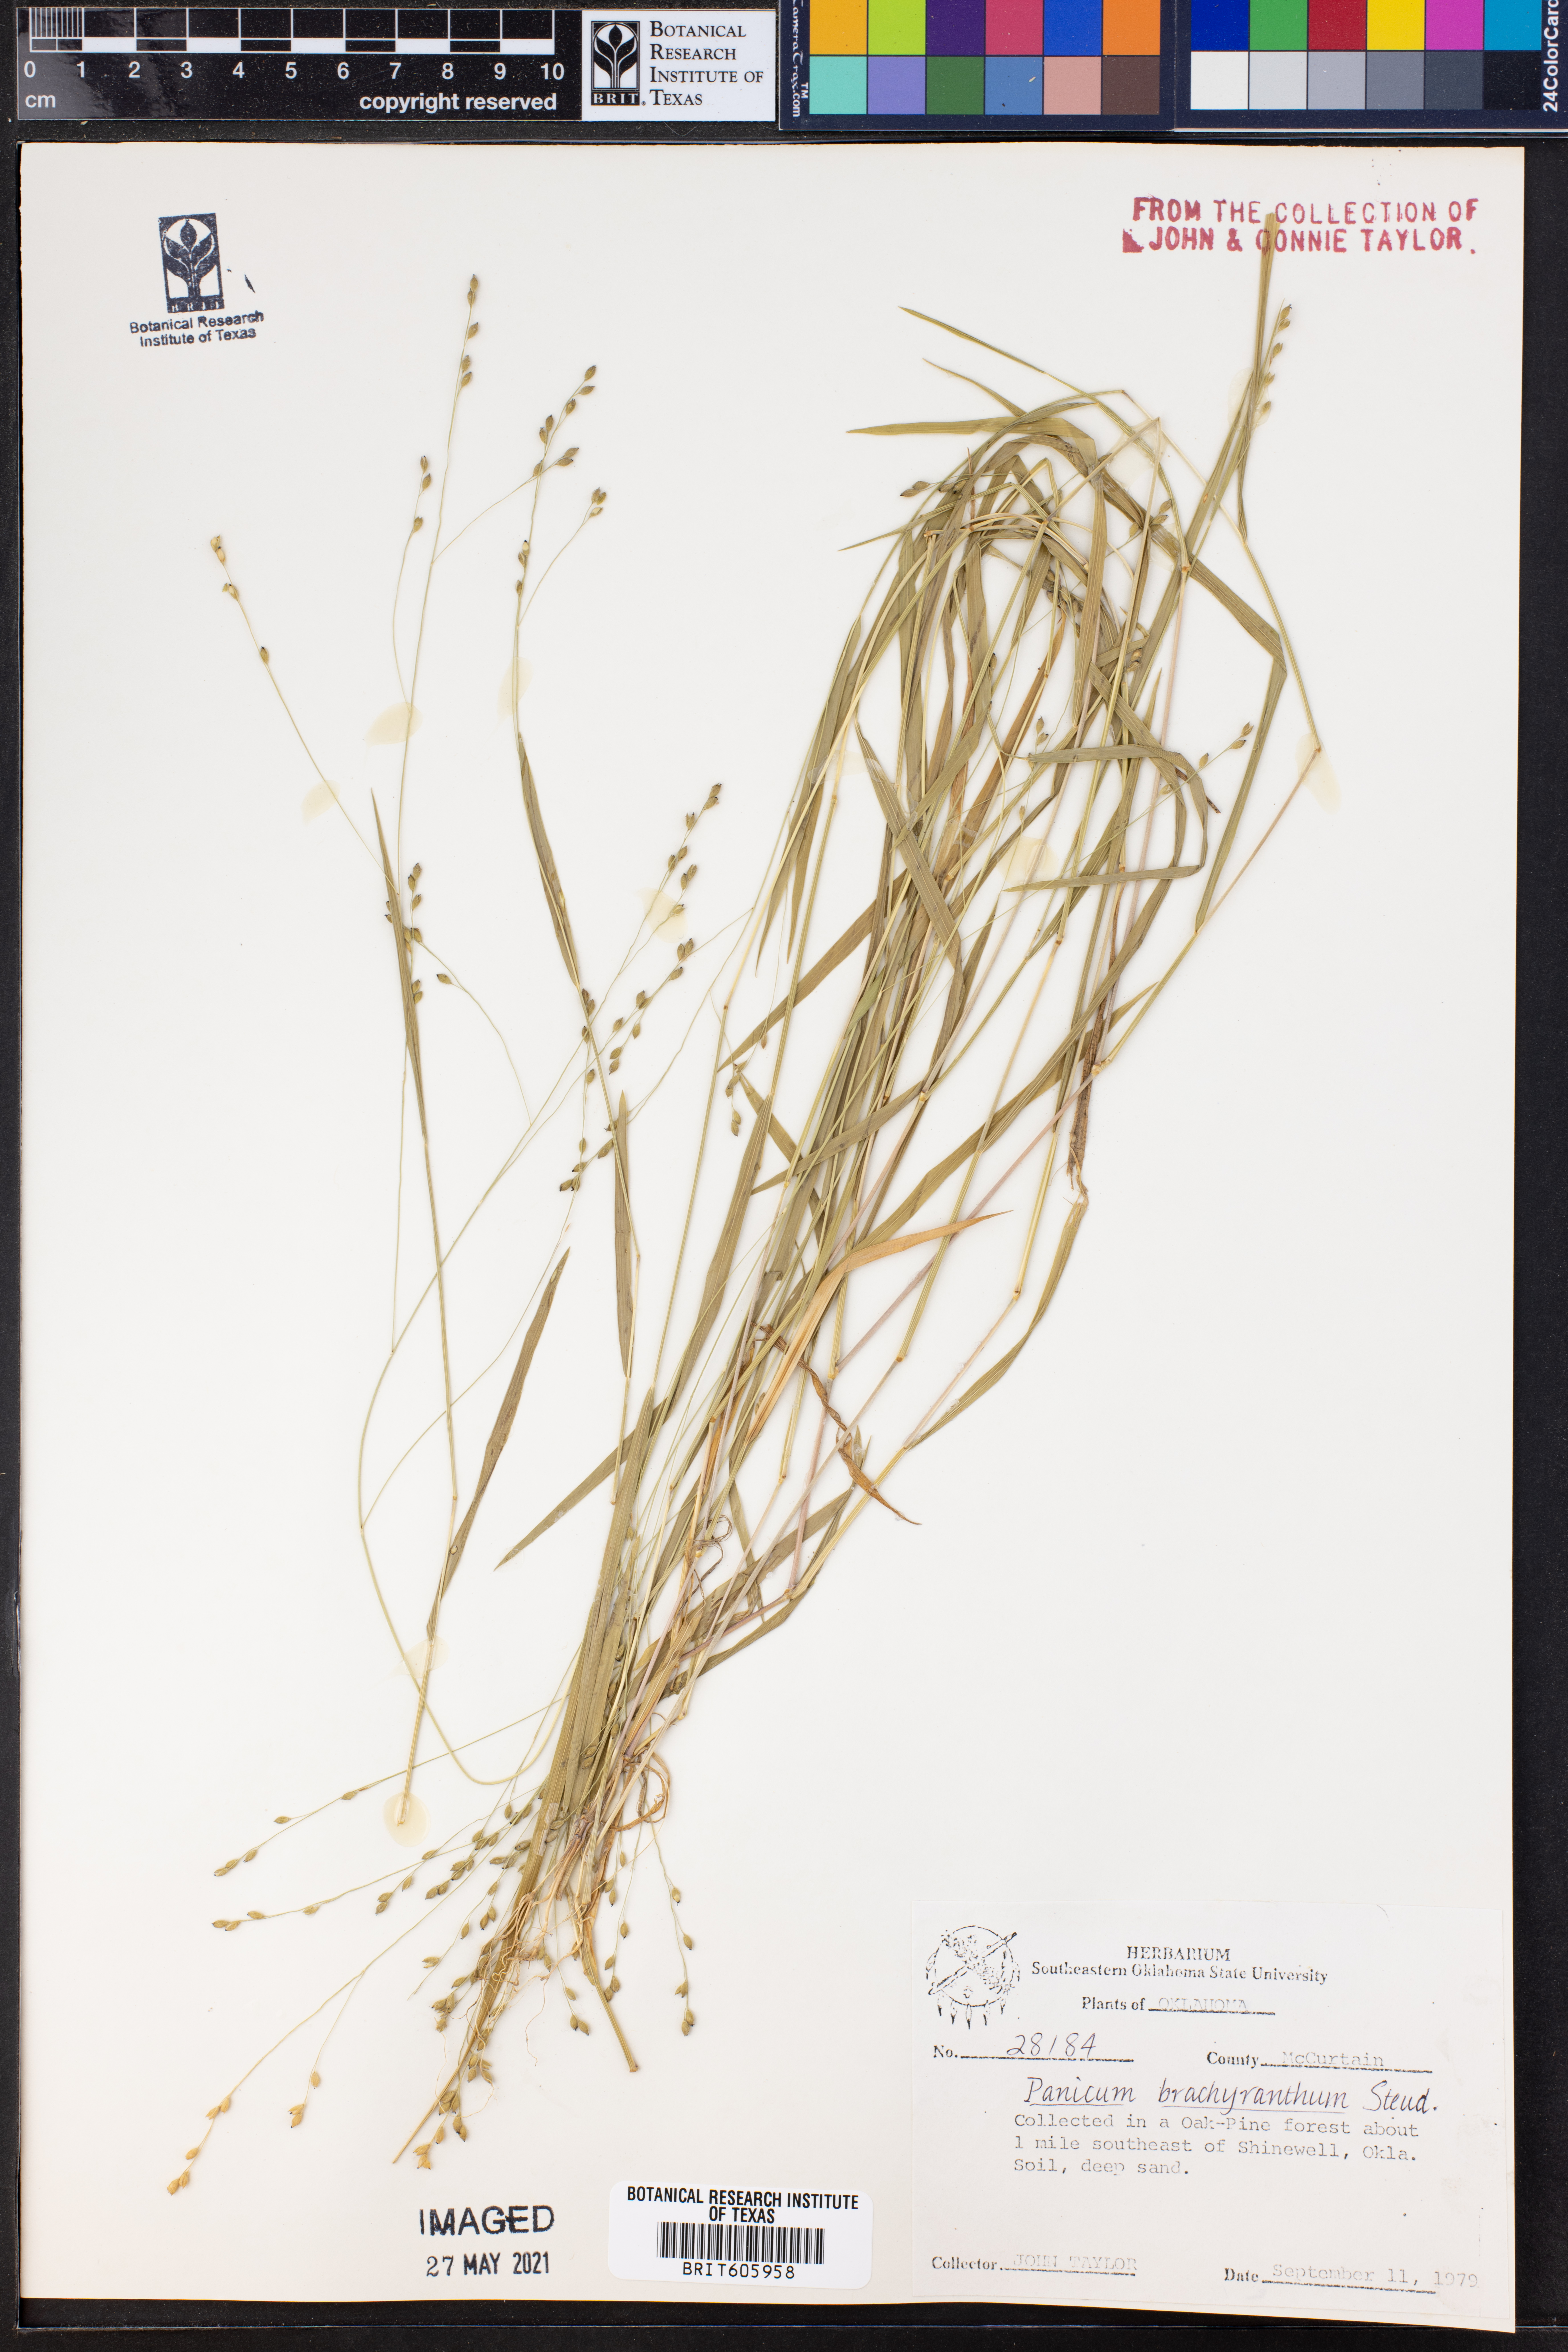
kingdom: Plantae
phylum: Tracheophyta
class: Liliopsida
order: Poales
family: Poaceae
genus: Kellochloa
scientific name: Kellochloa brachyantha
